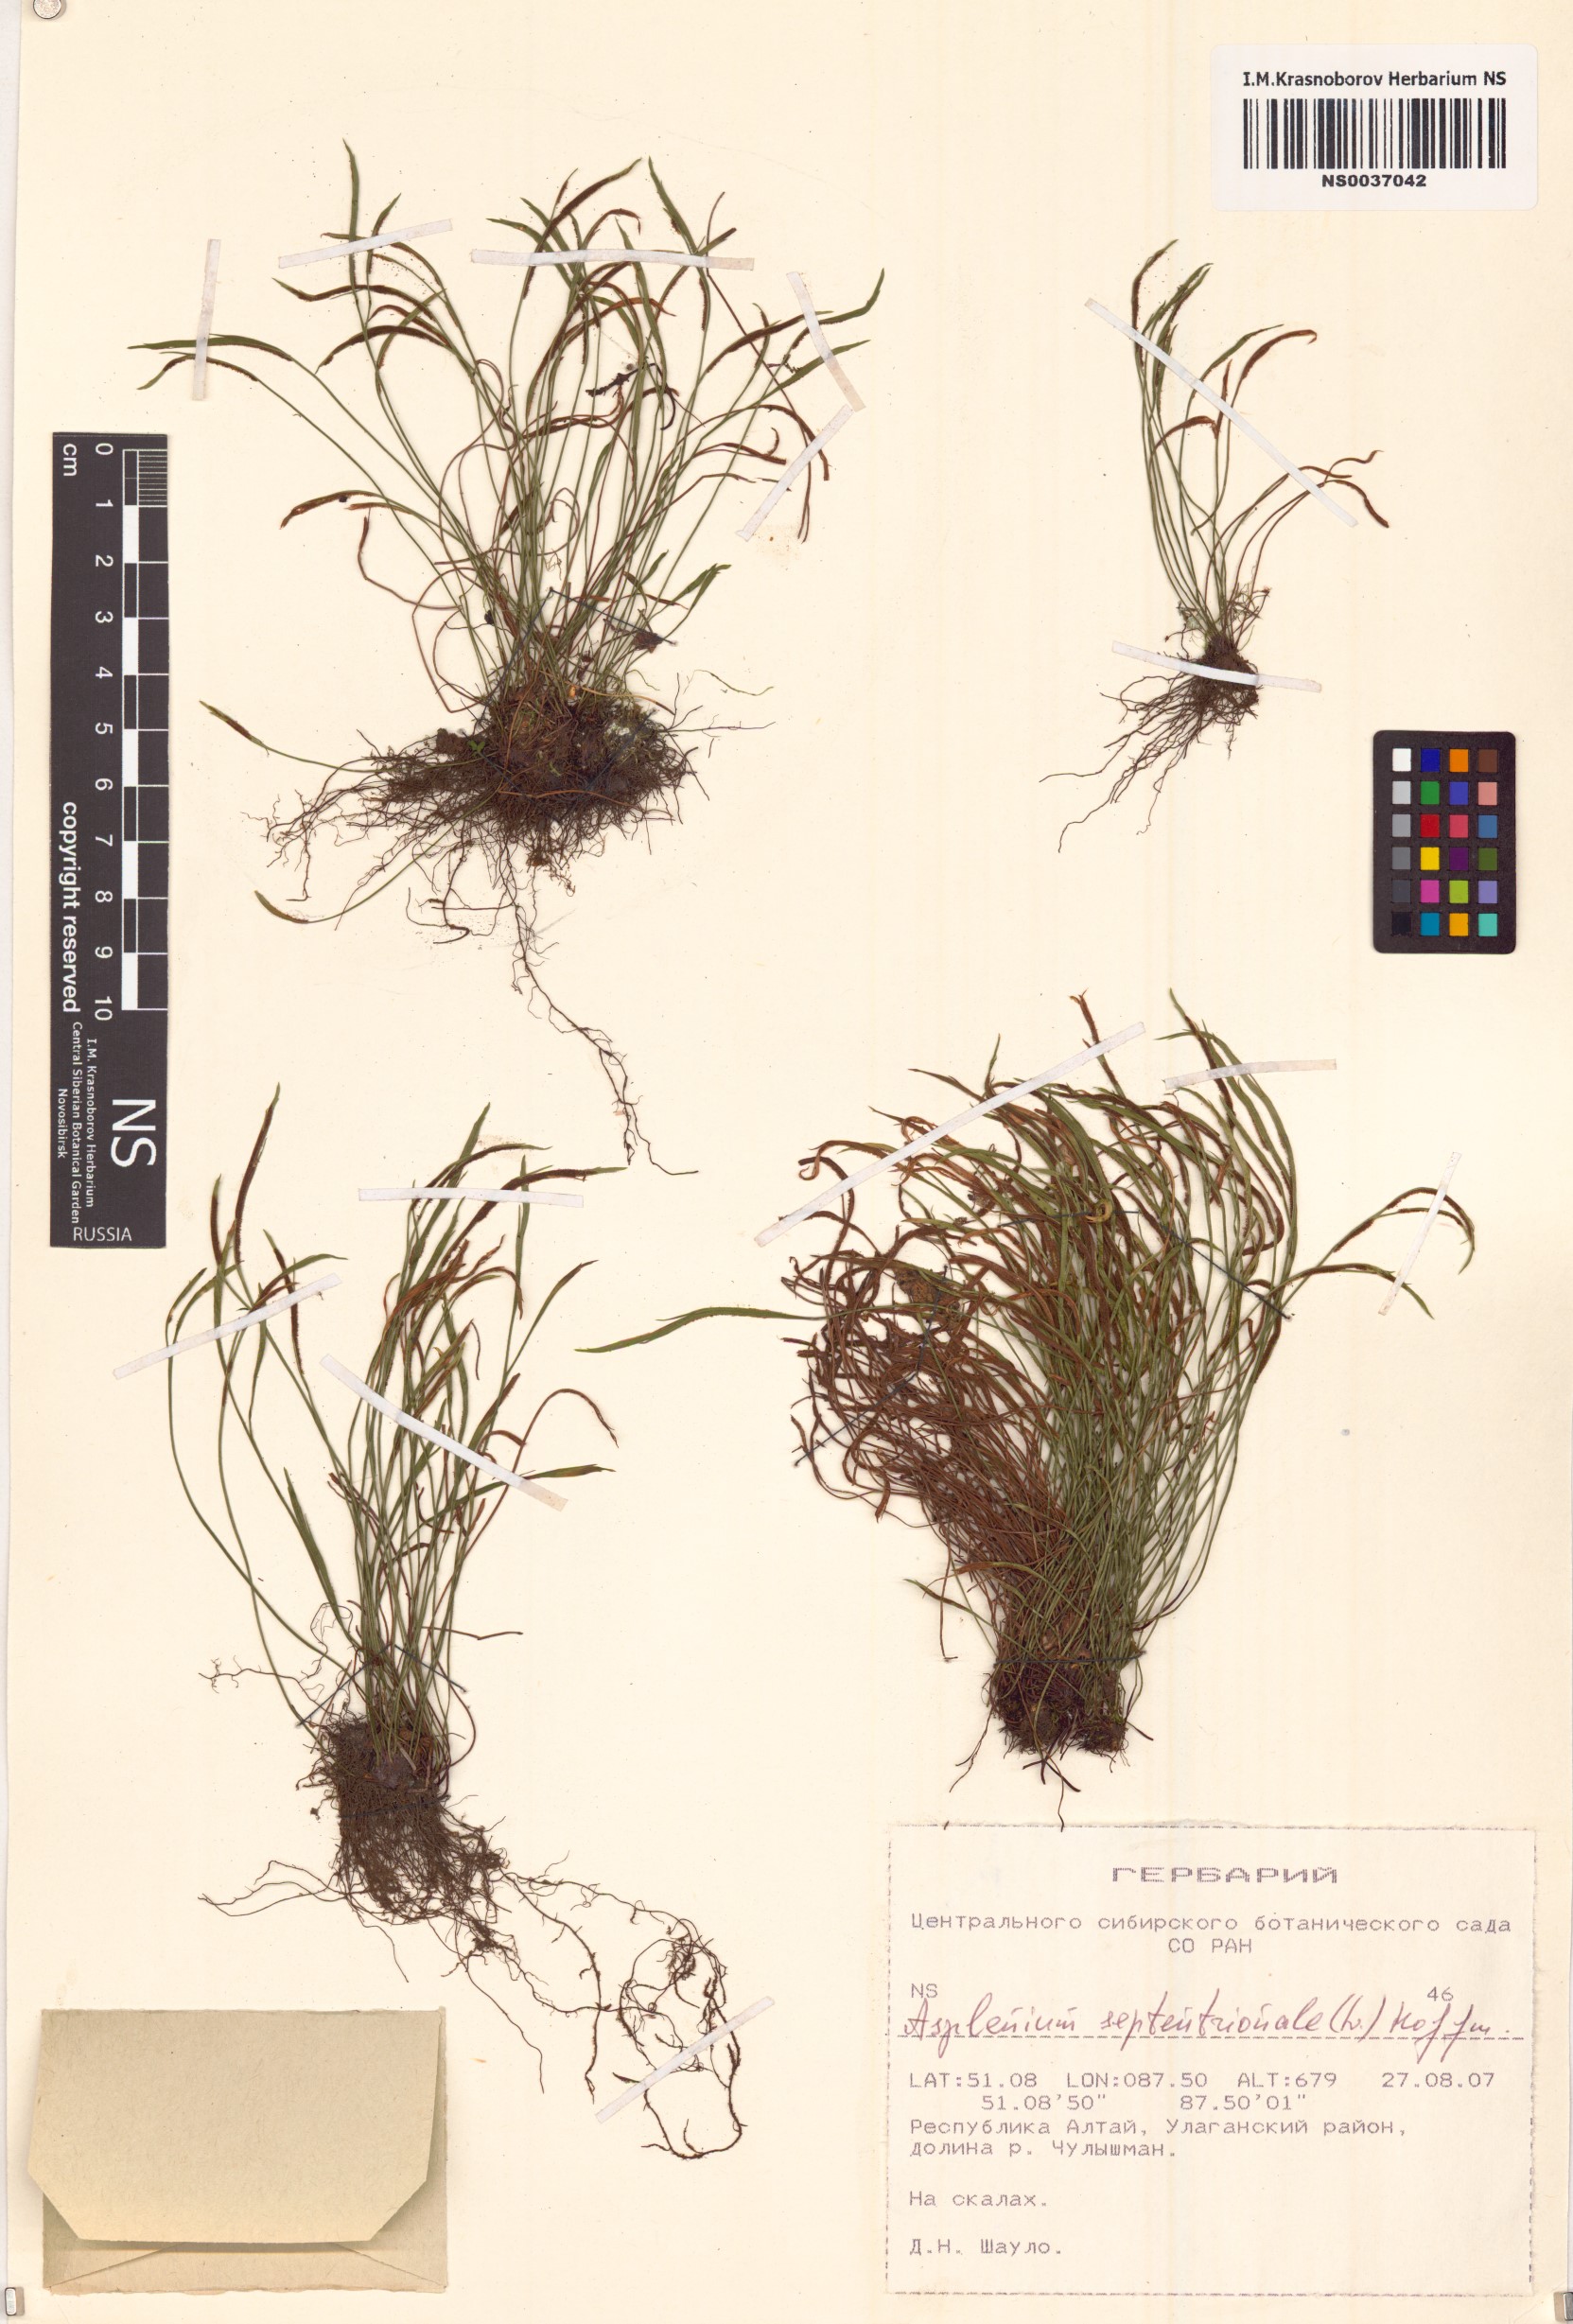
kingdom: Plantae
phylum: Tracheophyta
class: Polypodiopsida
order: Polypodiales
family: Aspleniaceae
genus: Asplenium
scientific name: Asplenium septentrionale
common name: Forked spleenwort
